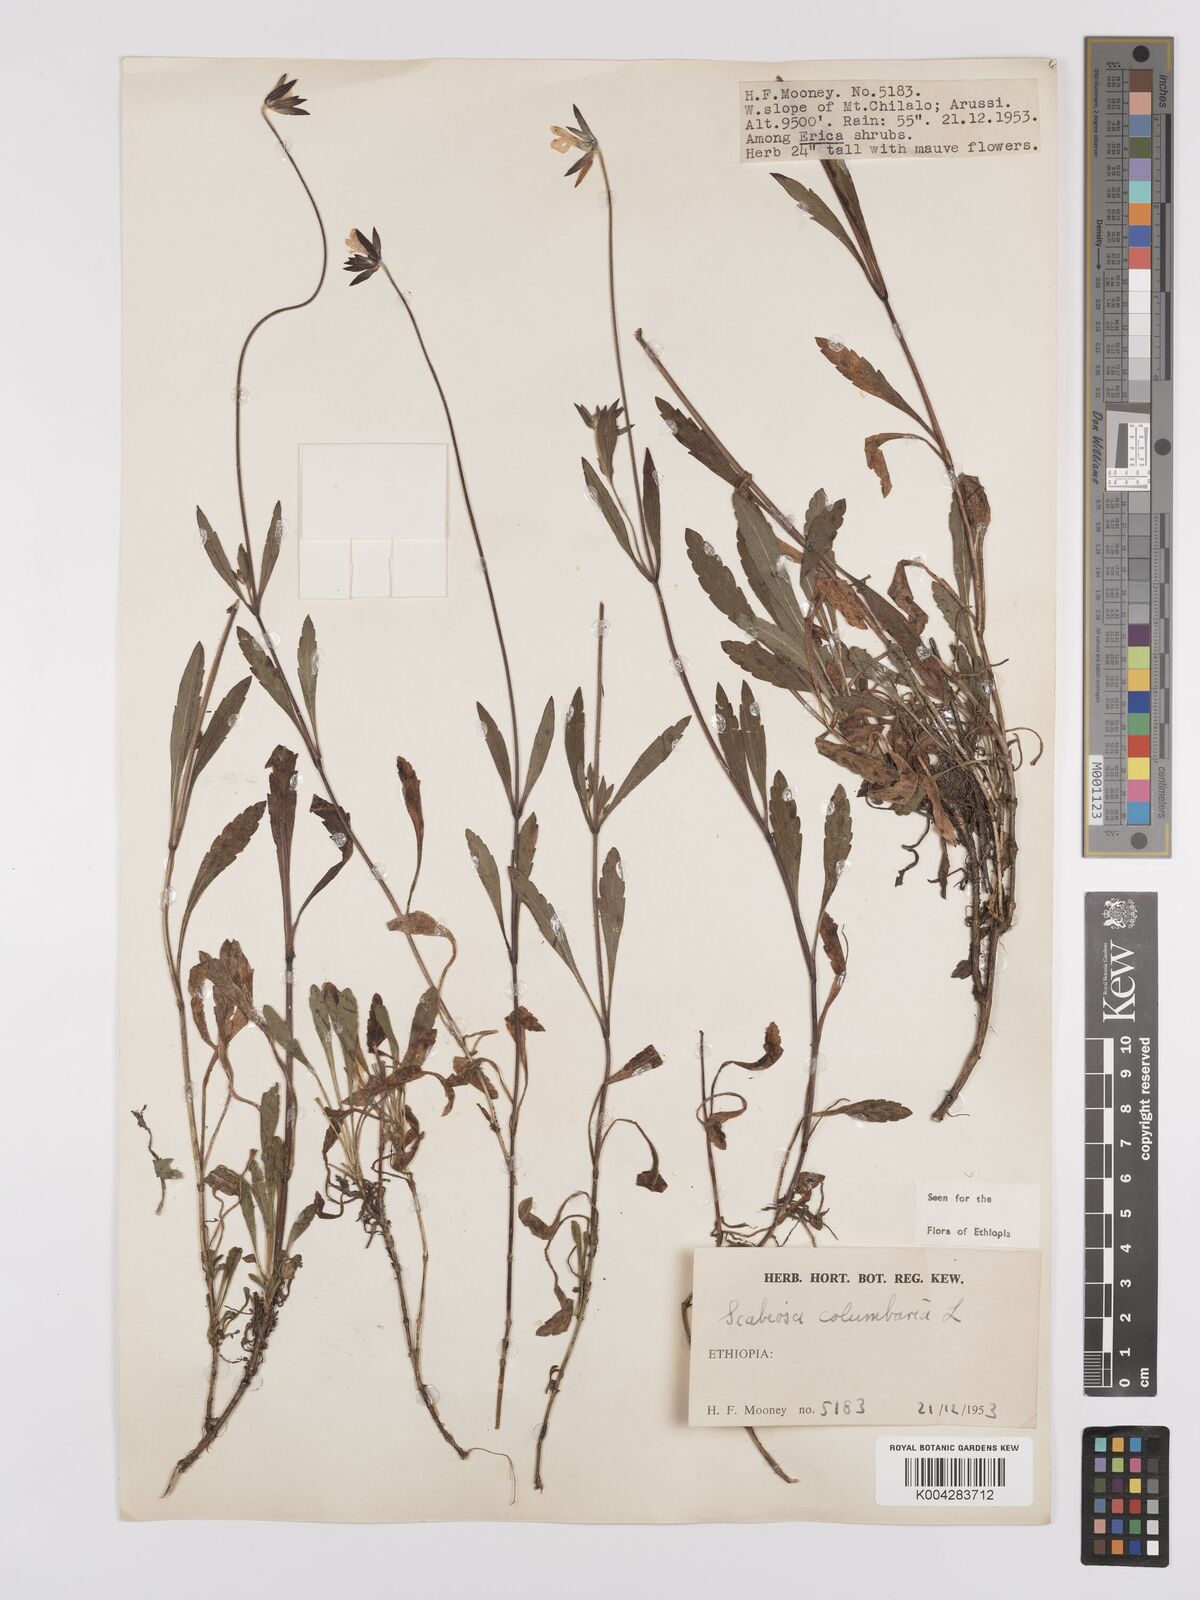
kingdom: Plantae
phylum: Tracheophyta
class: Magnoliopsida
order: Dipsacales
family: Caprifoliaceae
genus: Scabiosa
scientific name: Scabiosa columbaria
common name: Small scabious
